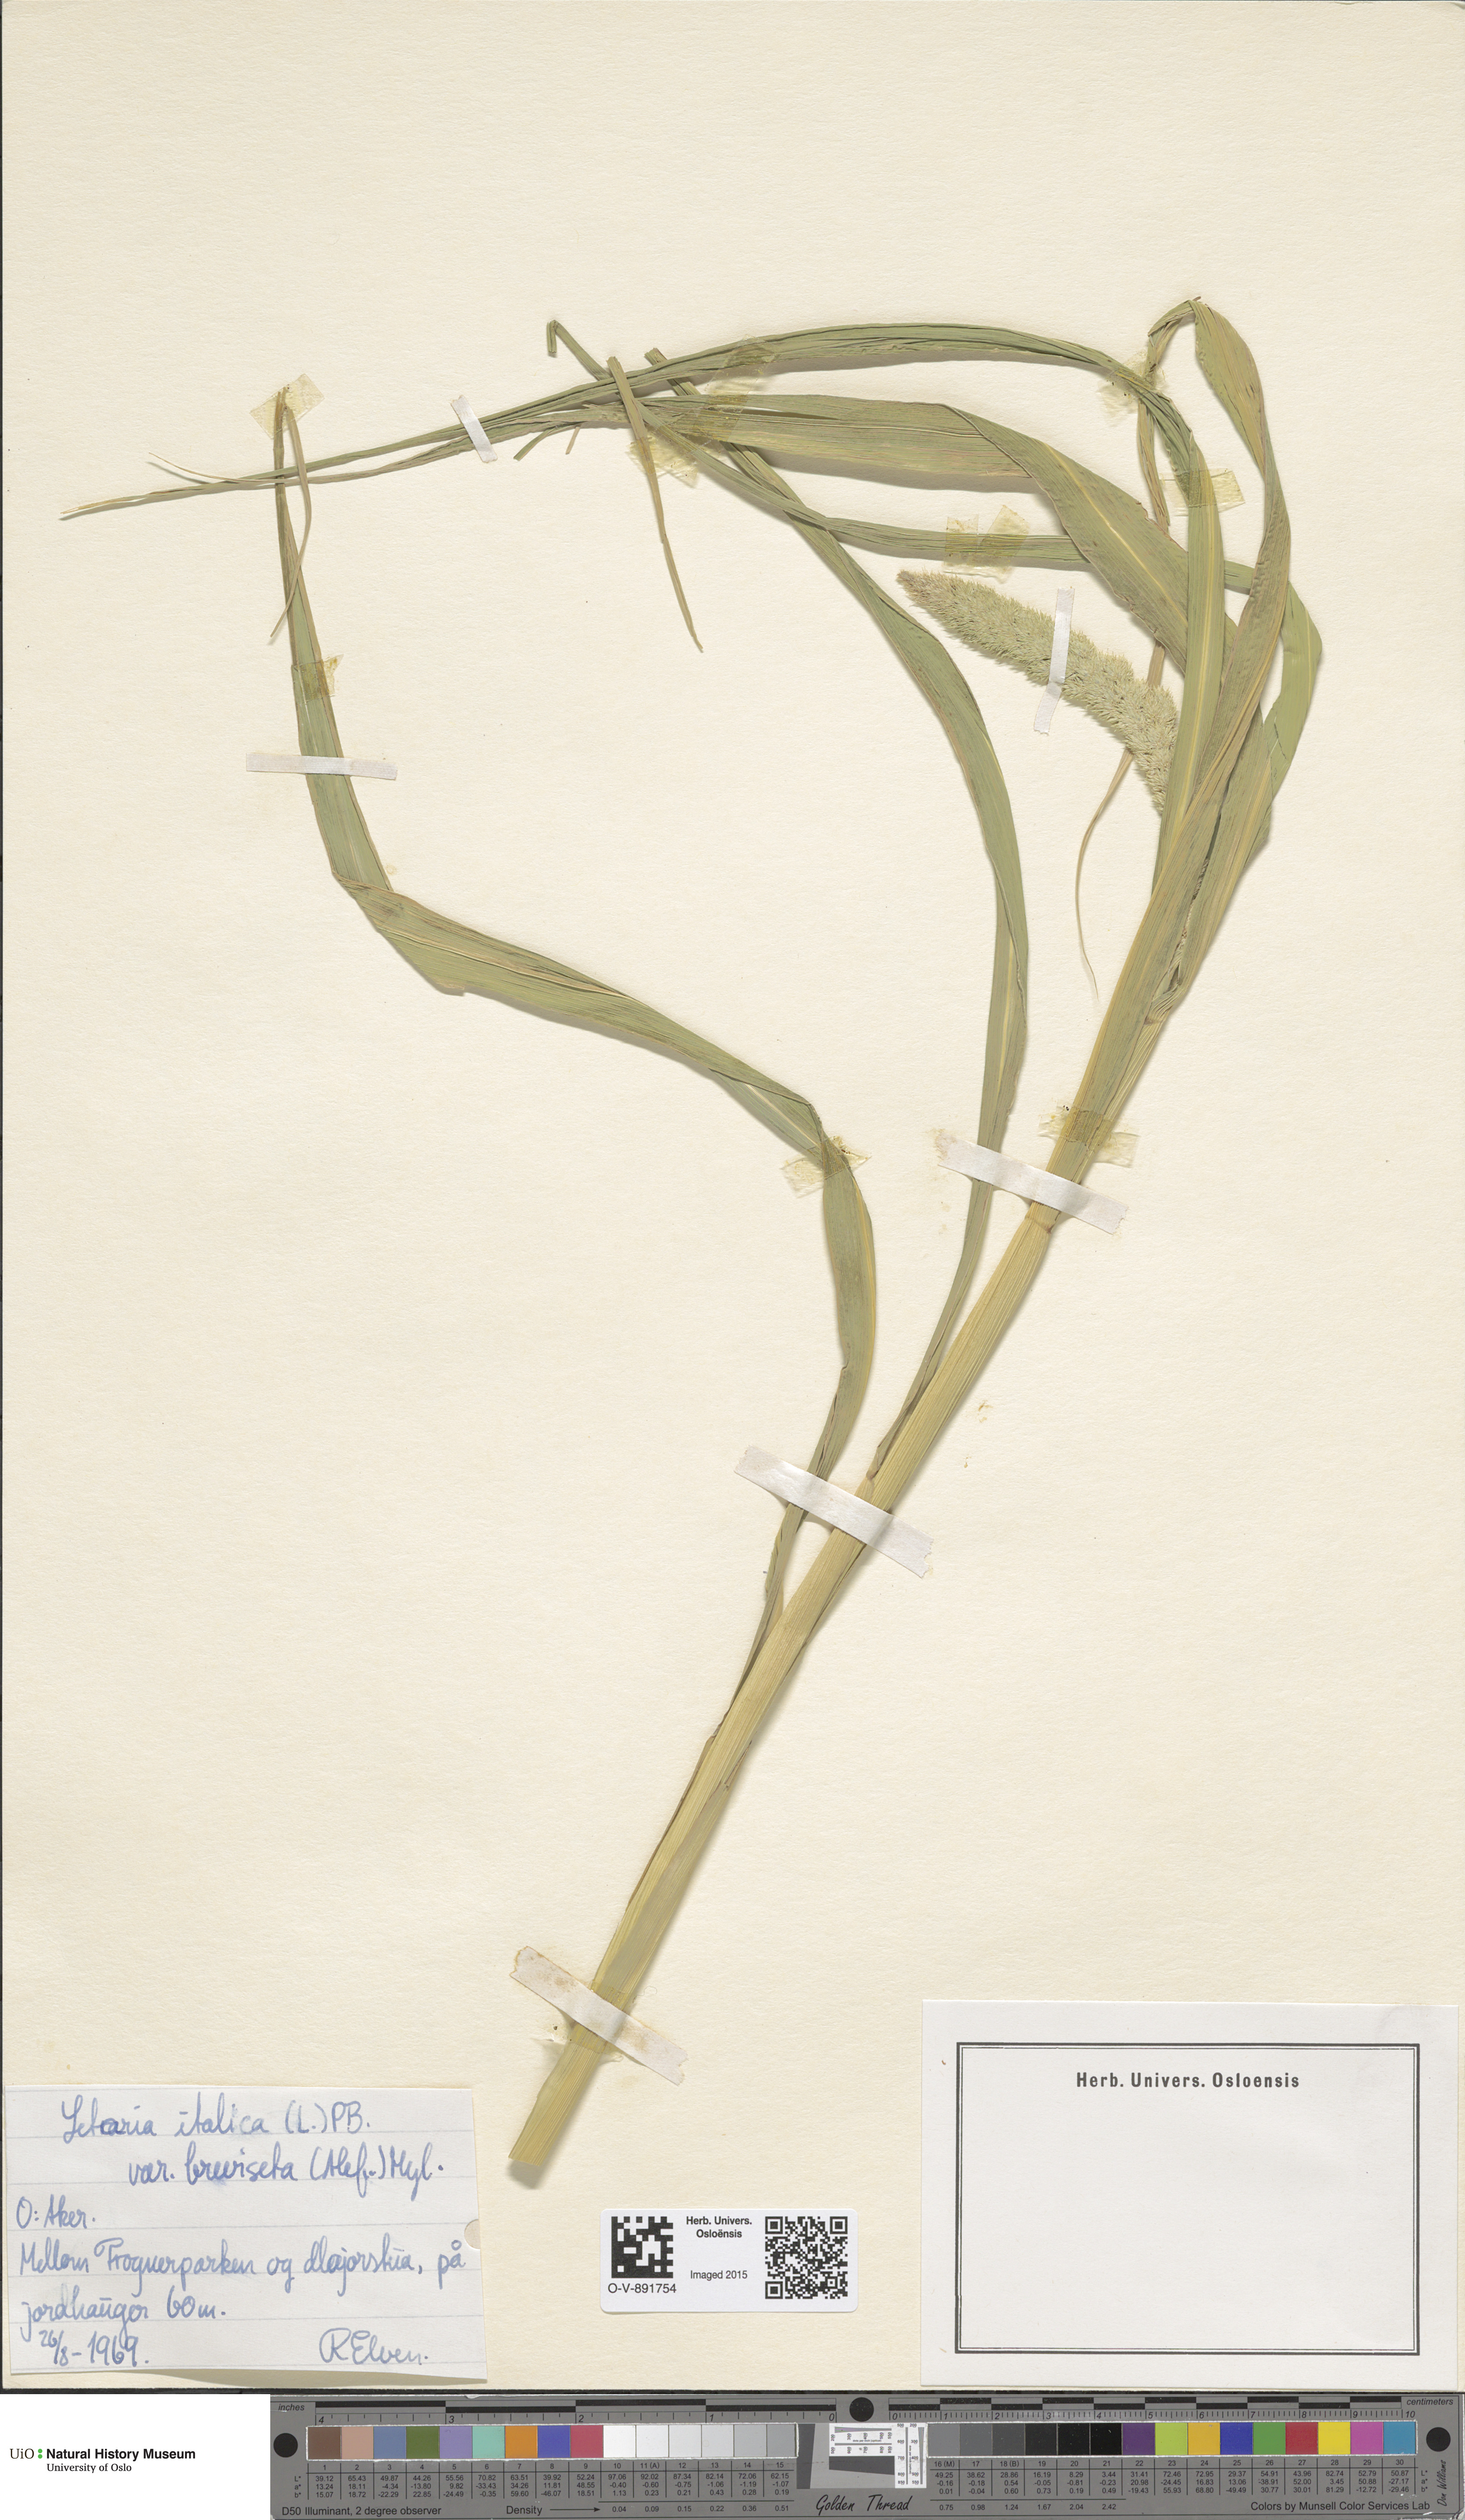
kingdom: Plantae
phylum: Tracheophyta
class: Liliopsida
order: Poales
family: Poaceae
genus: Setaria
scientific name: Setaria italica
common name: Foxtail bristle-grass
